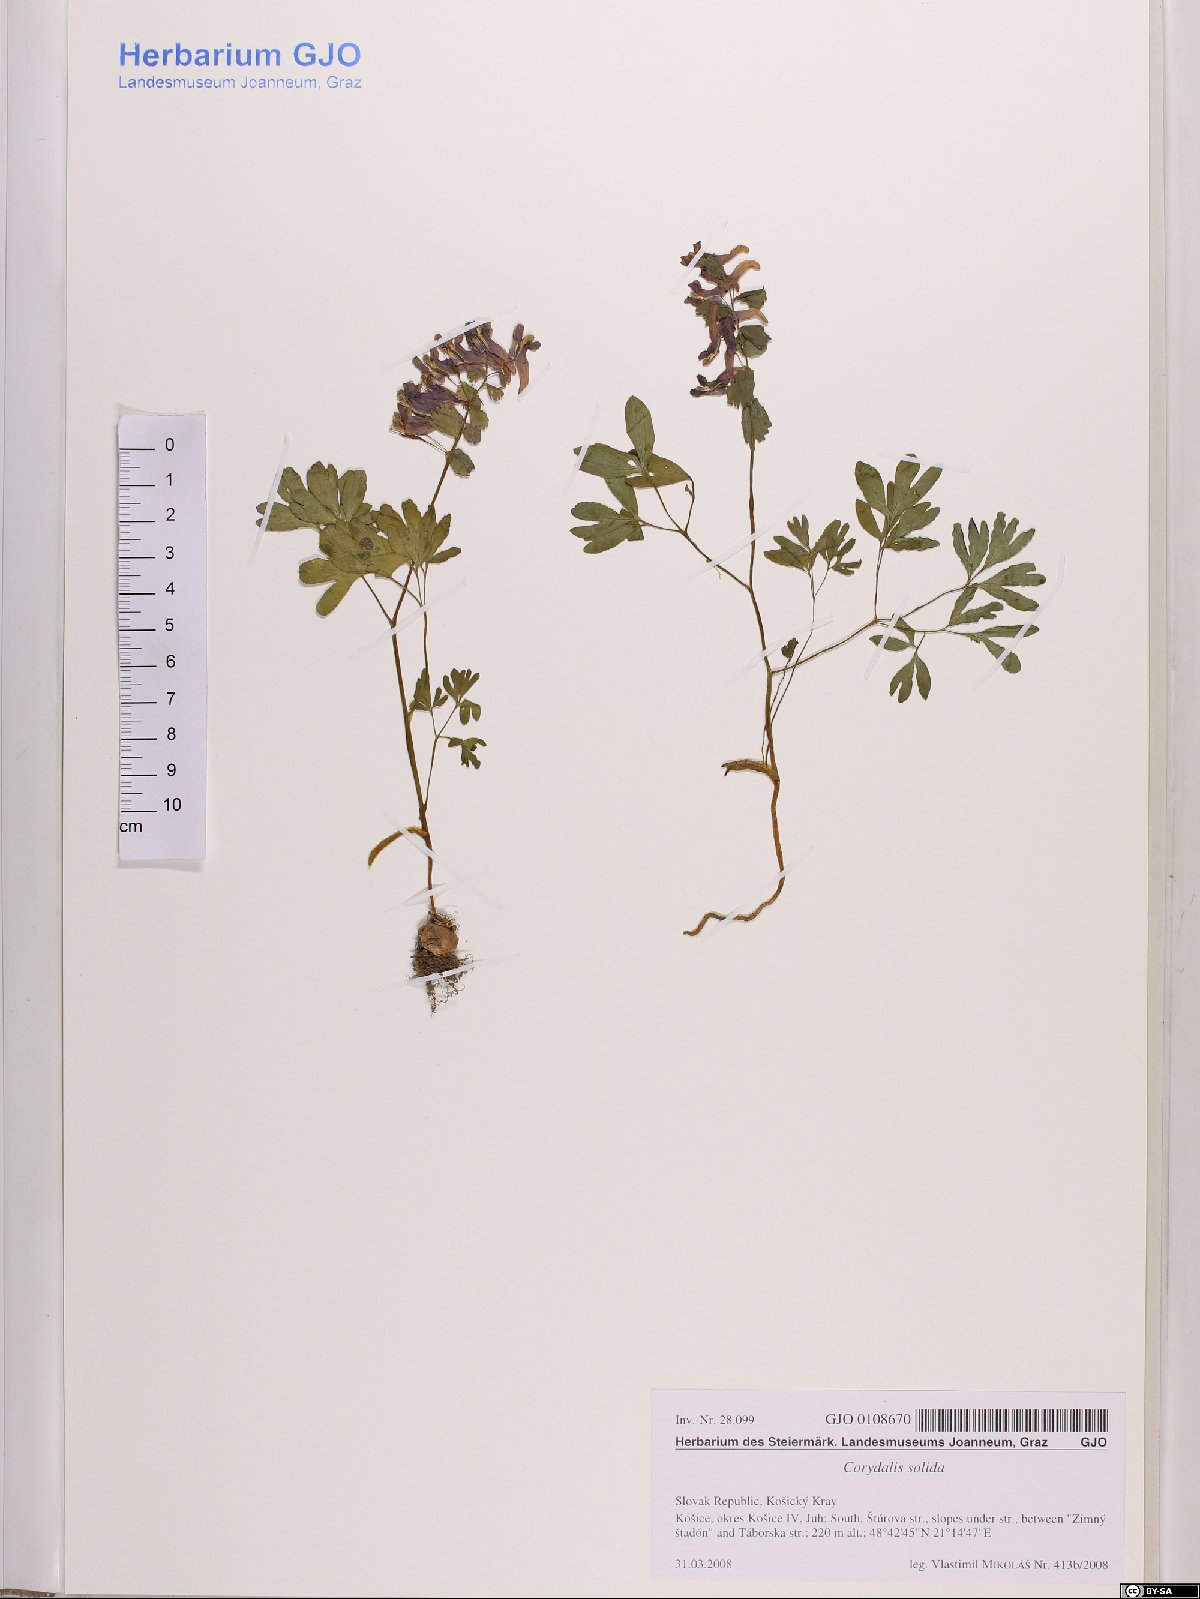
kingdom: Plantae
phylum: Tracheophyta
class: Magnoliopsida
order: Ranunculales
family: Papaveraceae
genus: Corydalis
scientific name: Corydalis solida
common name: Bird-in-a-bush
